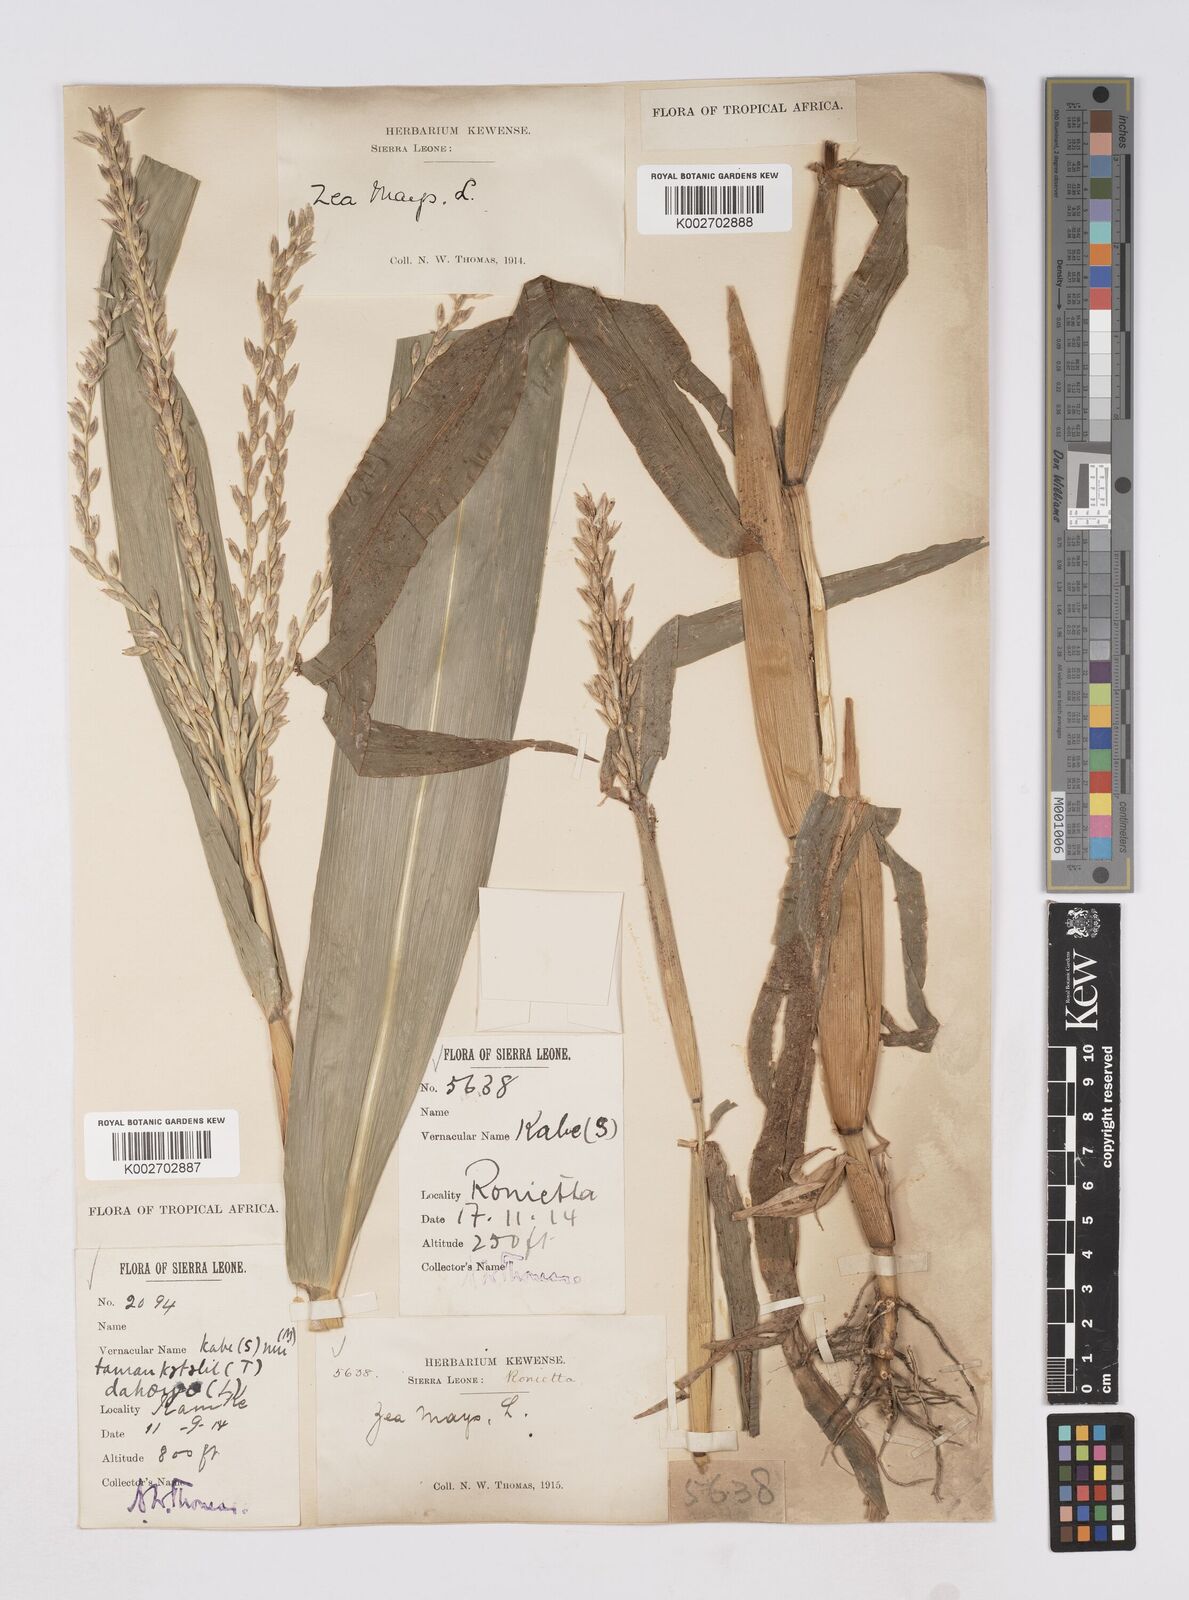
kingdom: Plantae
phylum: Tracheophyta
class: Liliopsida
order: Poales
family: Poaceae
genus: Zea
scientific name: Zea mays
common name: Maize
